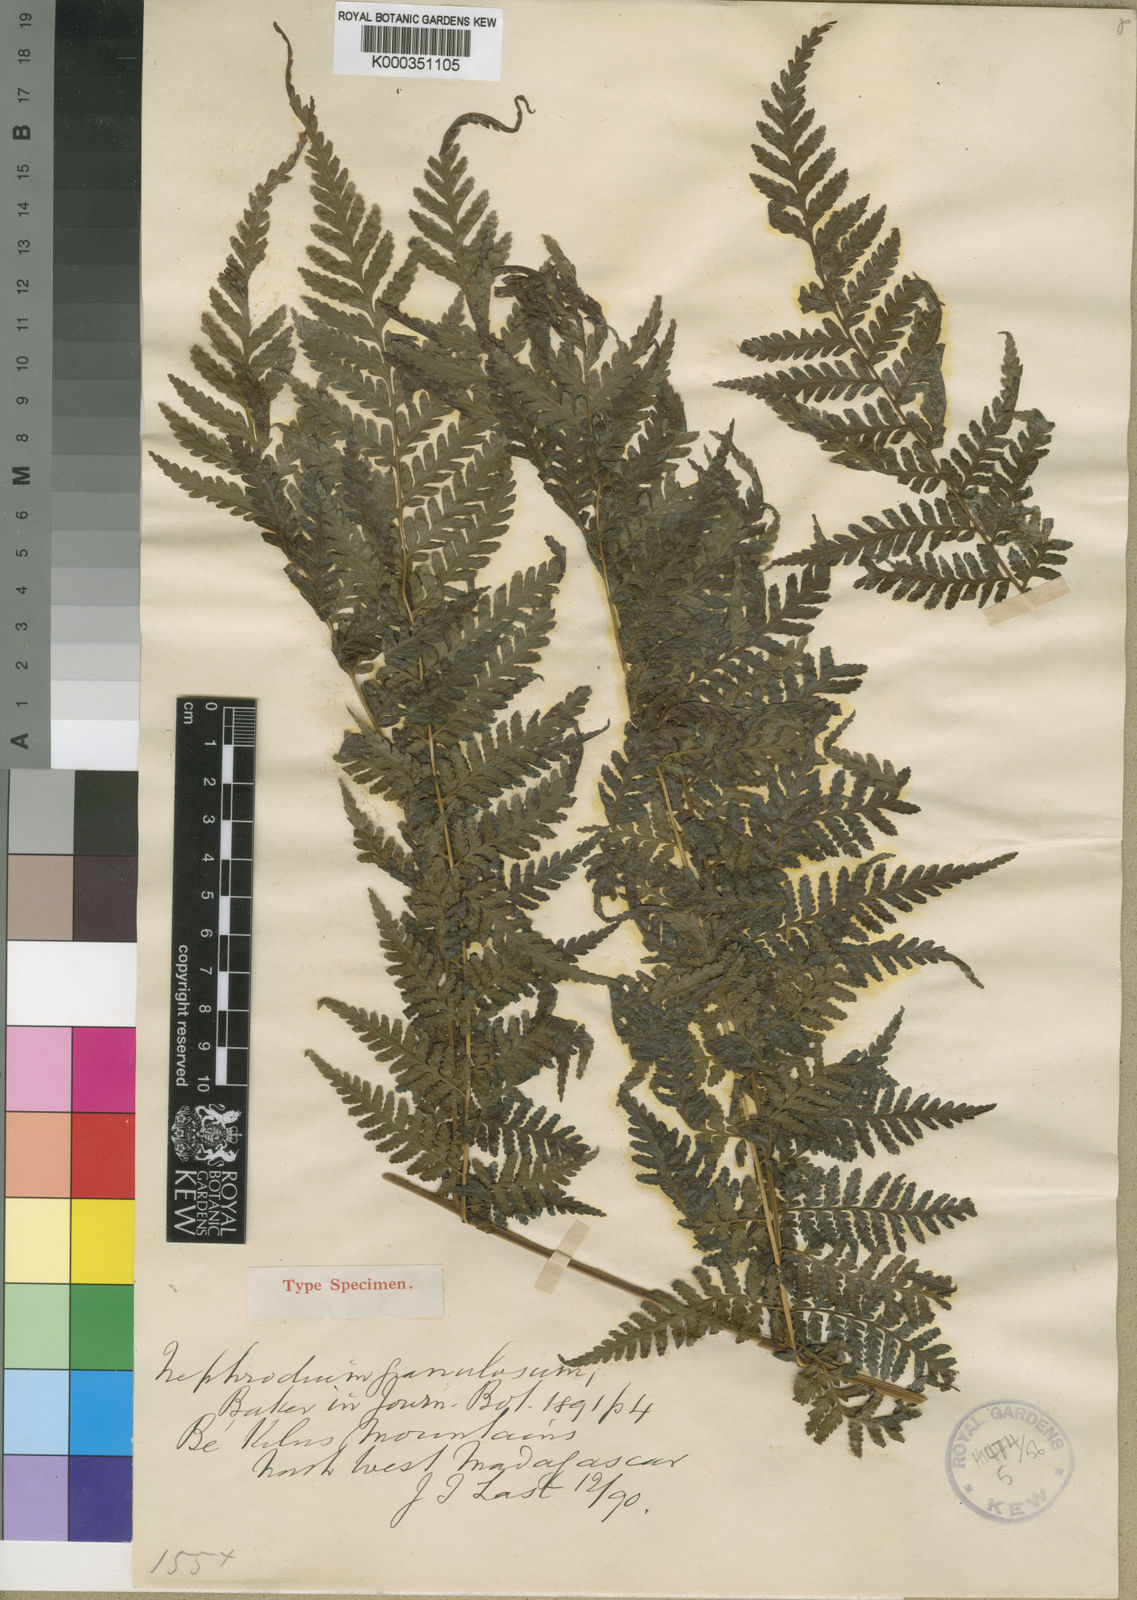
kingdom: Plantae
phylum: Tracheophyta
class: Polypodiopsida
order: Polypodiales
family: Dryopteridaceae
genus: Parapolystichum
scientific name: Parapolystichum boivinii
